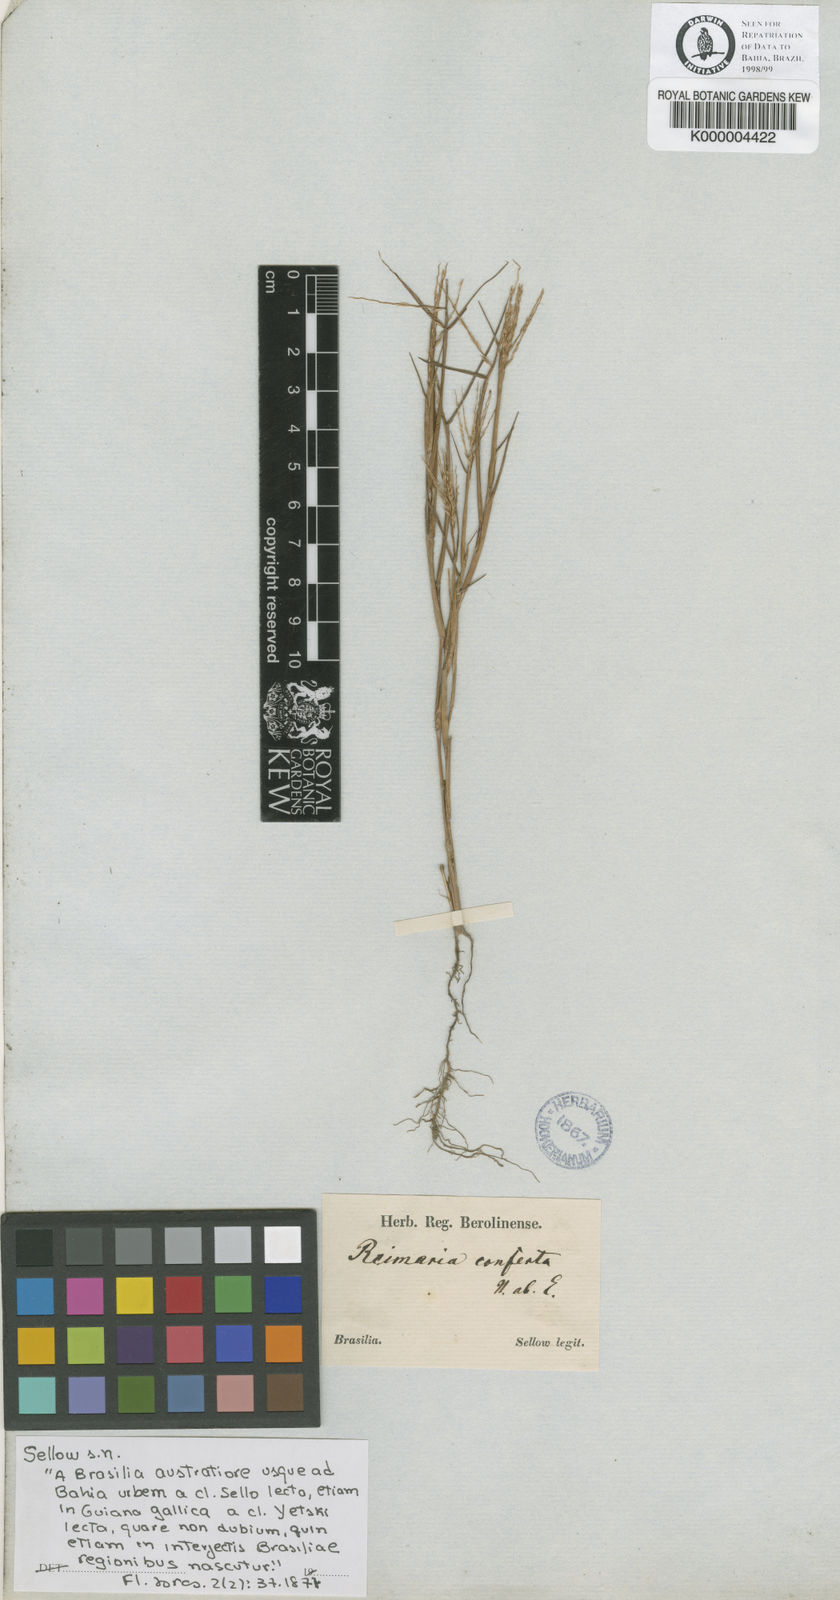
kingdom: Plantae
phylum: Tracheophyta
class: Liliopsida
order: Poales
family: Poaceae
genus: Paspalum
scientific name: Paspalum stagnophilum
